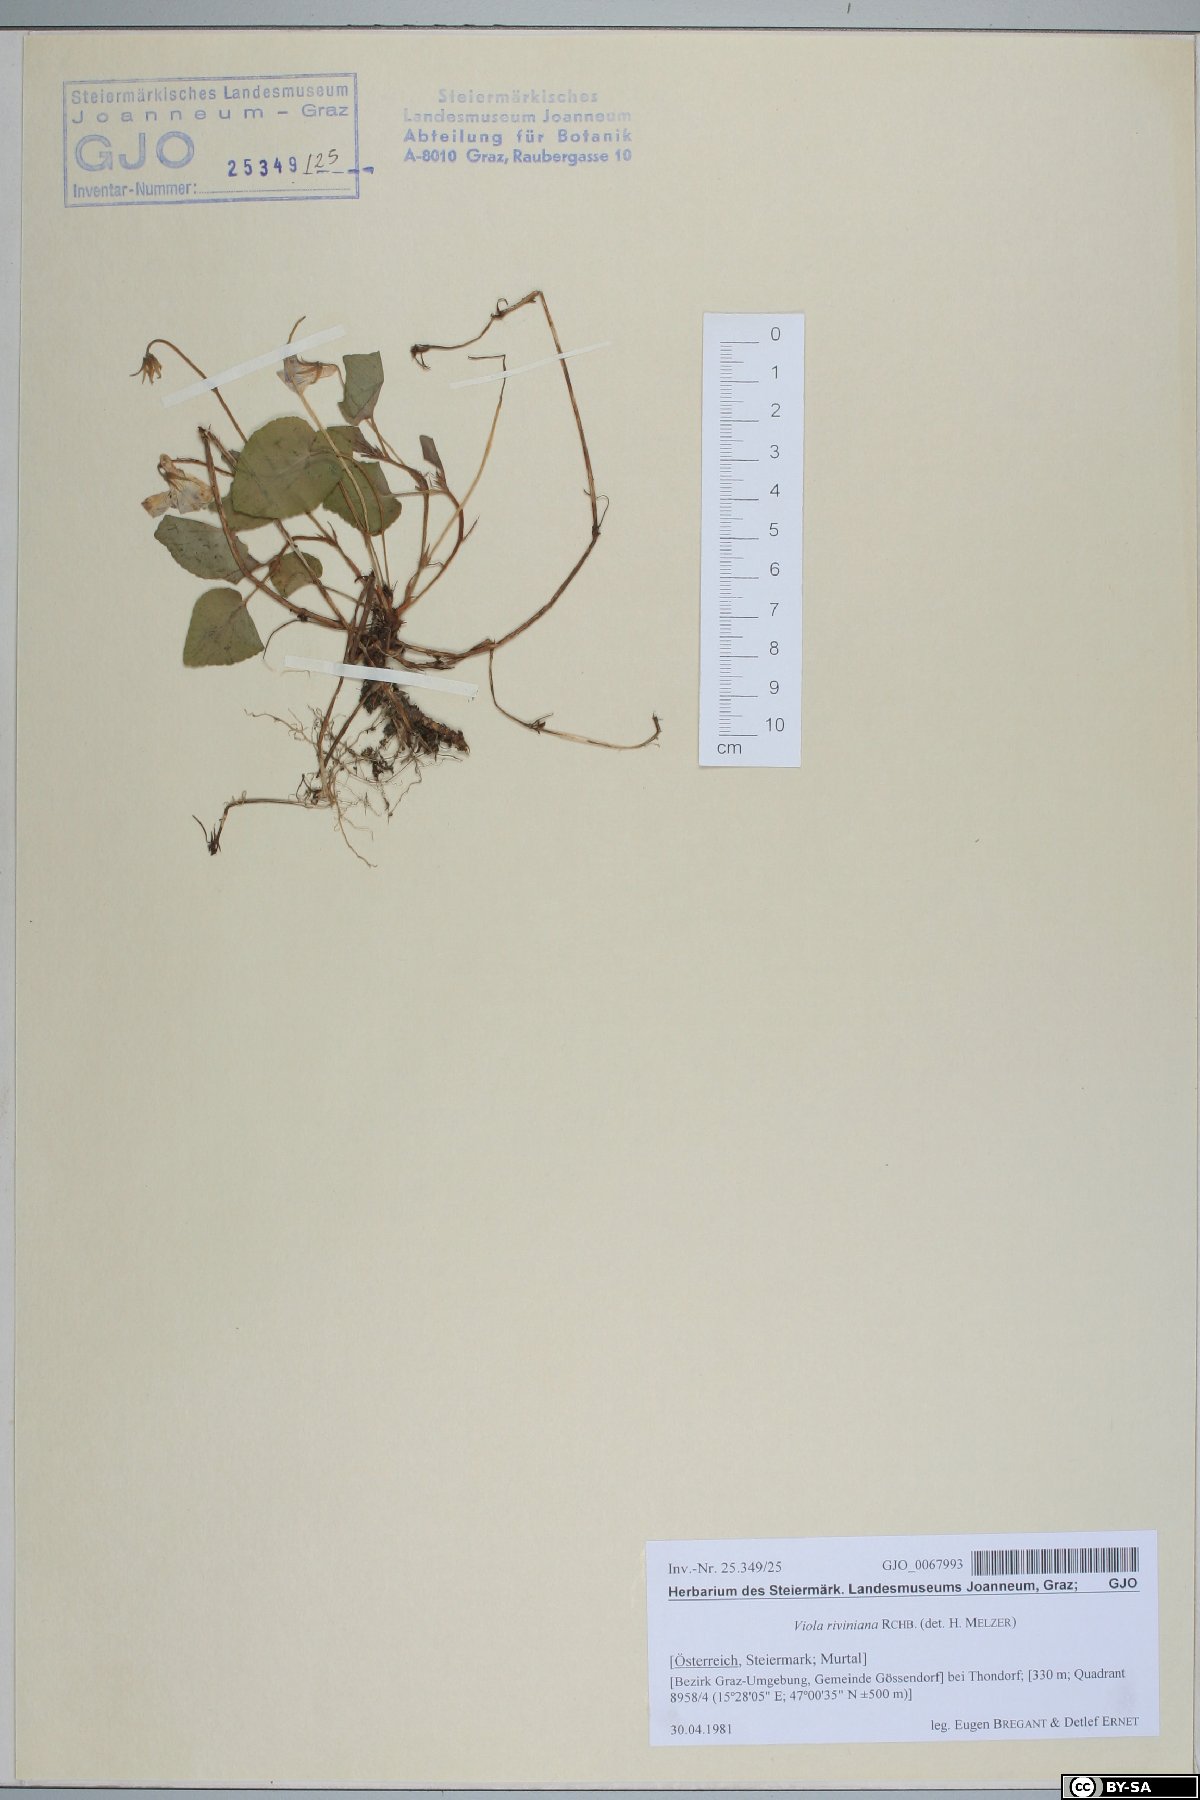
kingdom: Plantae
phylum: Tracheophyta
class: Magnoliopsida
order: Malpighiales
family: Violaceae
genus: Viola
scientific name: Viola riviniana
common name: Common dog-violet
